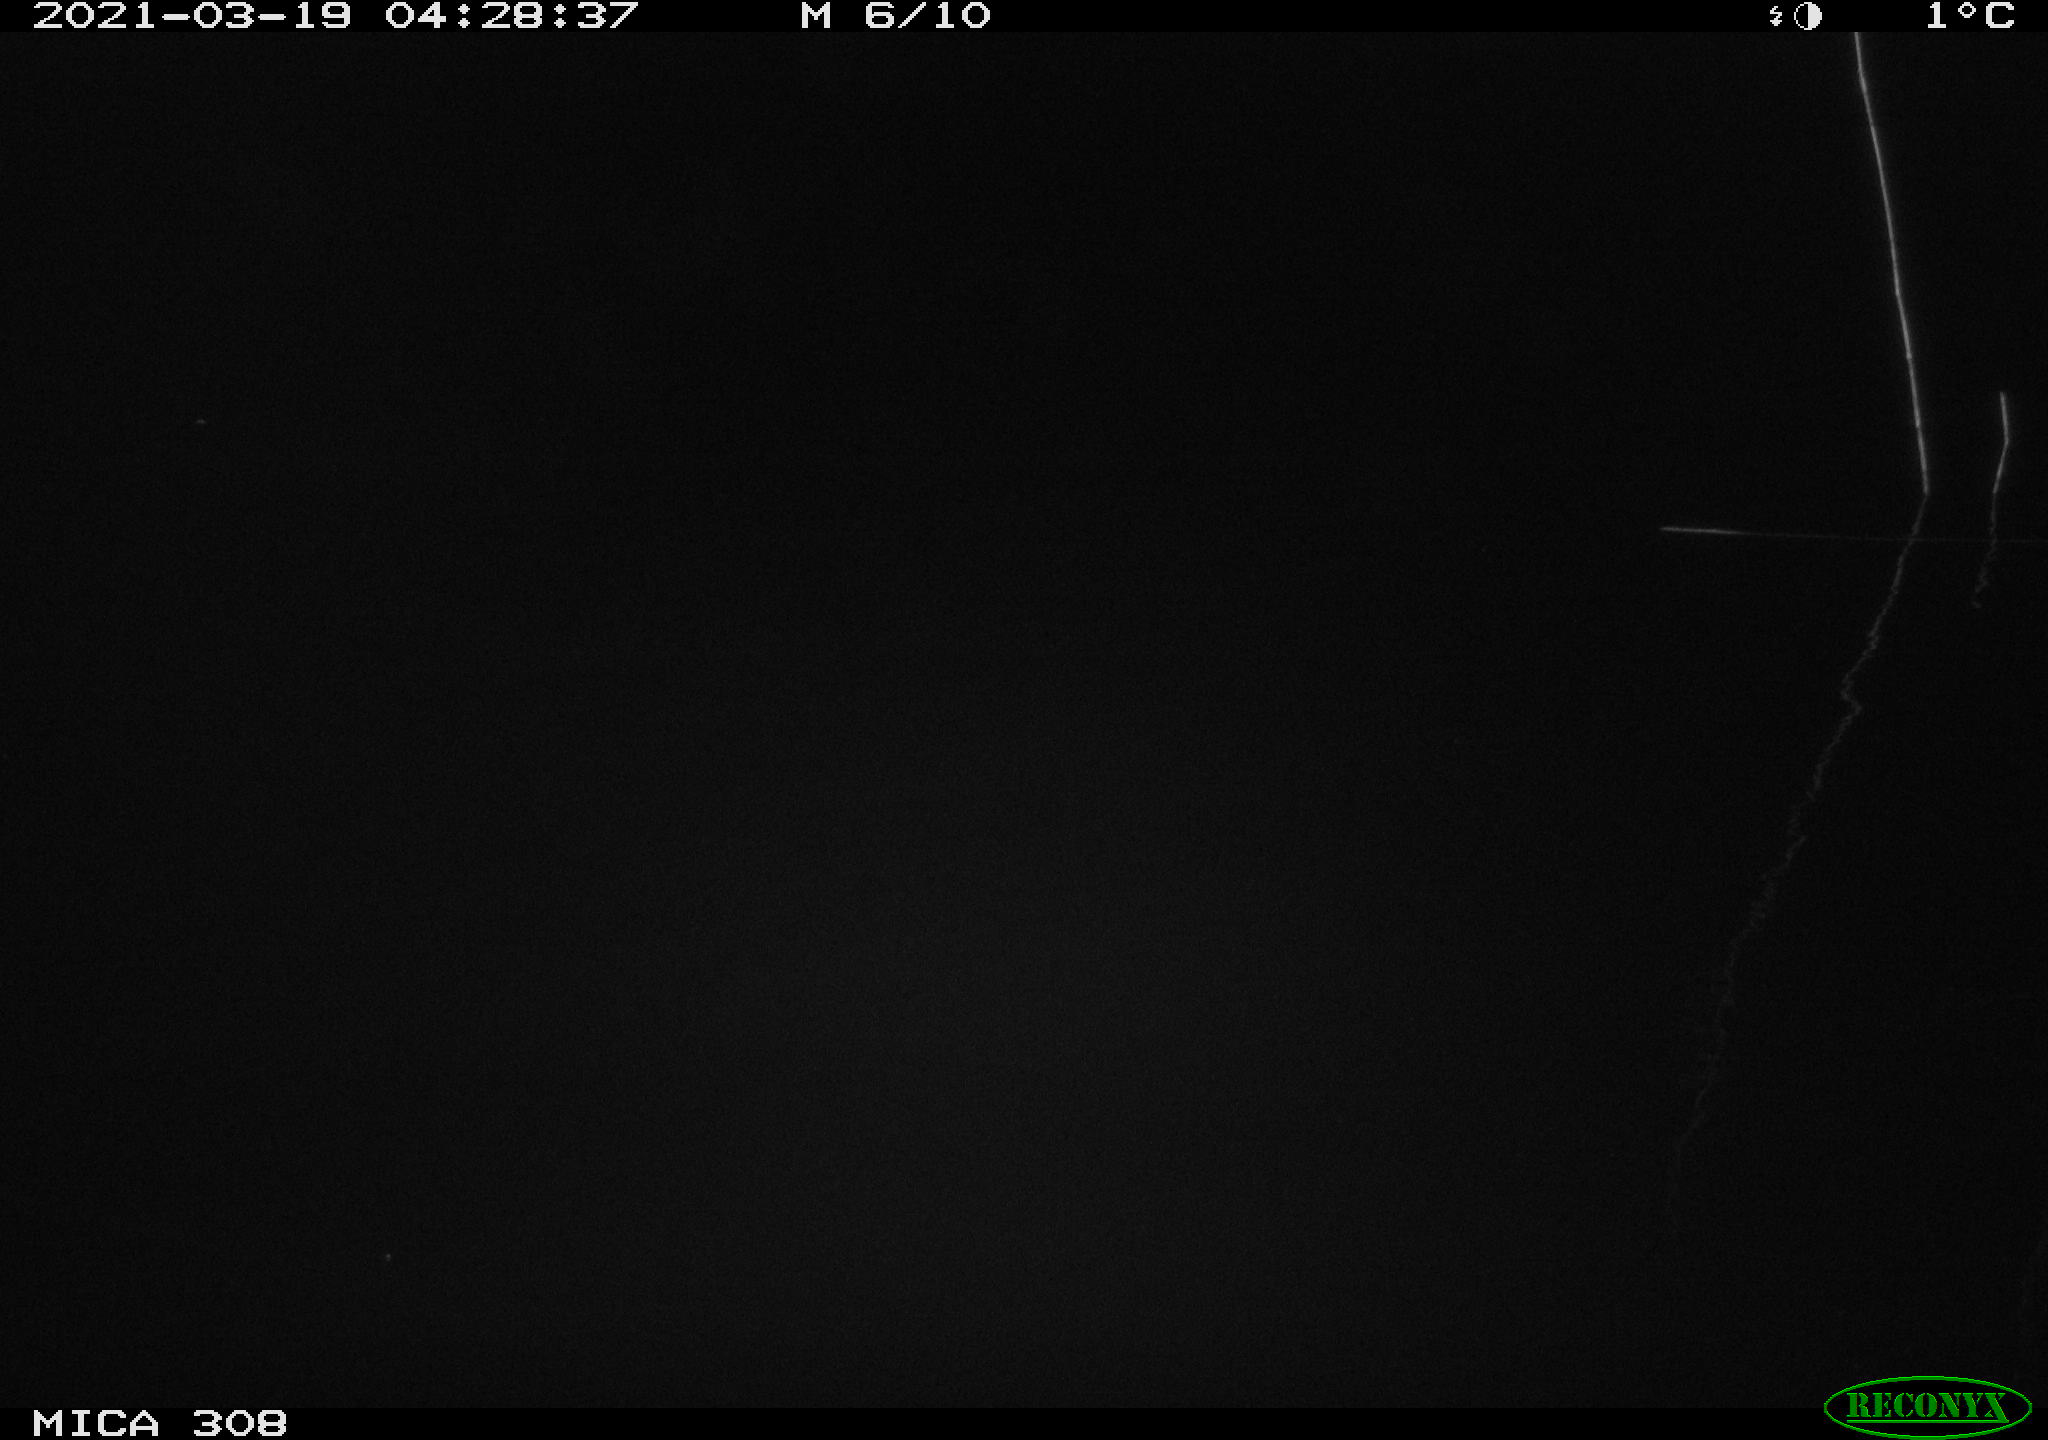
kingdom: Animalia
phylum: Chordata
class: Mammalia
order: Rodentia
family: Cricetidae
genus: Ondatra
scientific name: Ondatra zibethicus
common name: Muskrat
